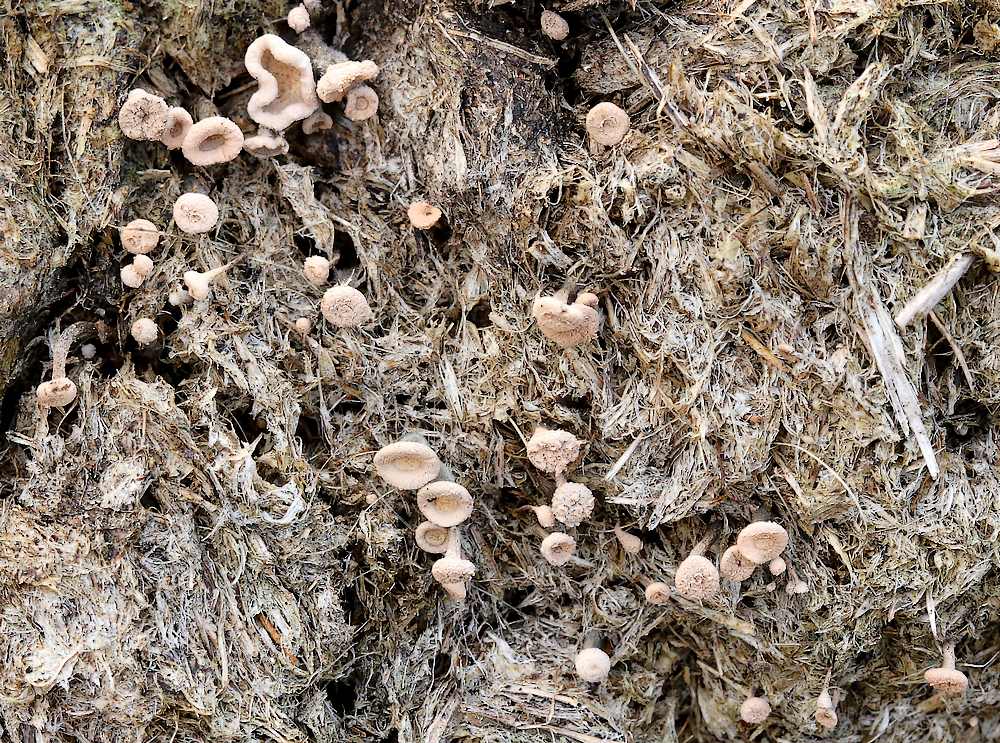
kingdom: Fungi
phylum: Ascomycota
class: Sordariomycetes
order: Xylariales
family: Xylariaceae
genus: Poronia
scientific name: Poronia punctata
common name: stor priksvamp
